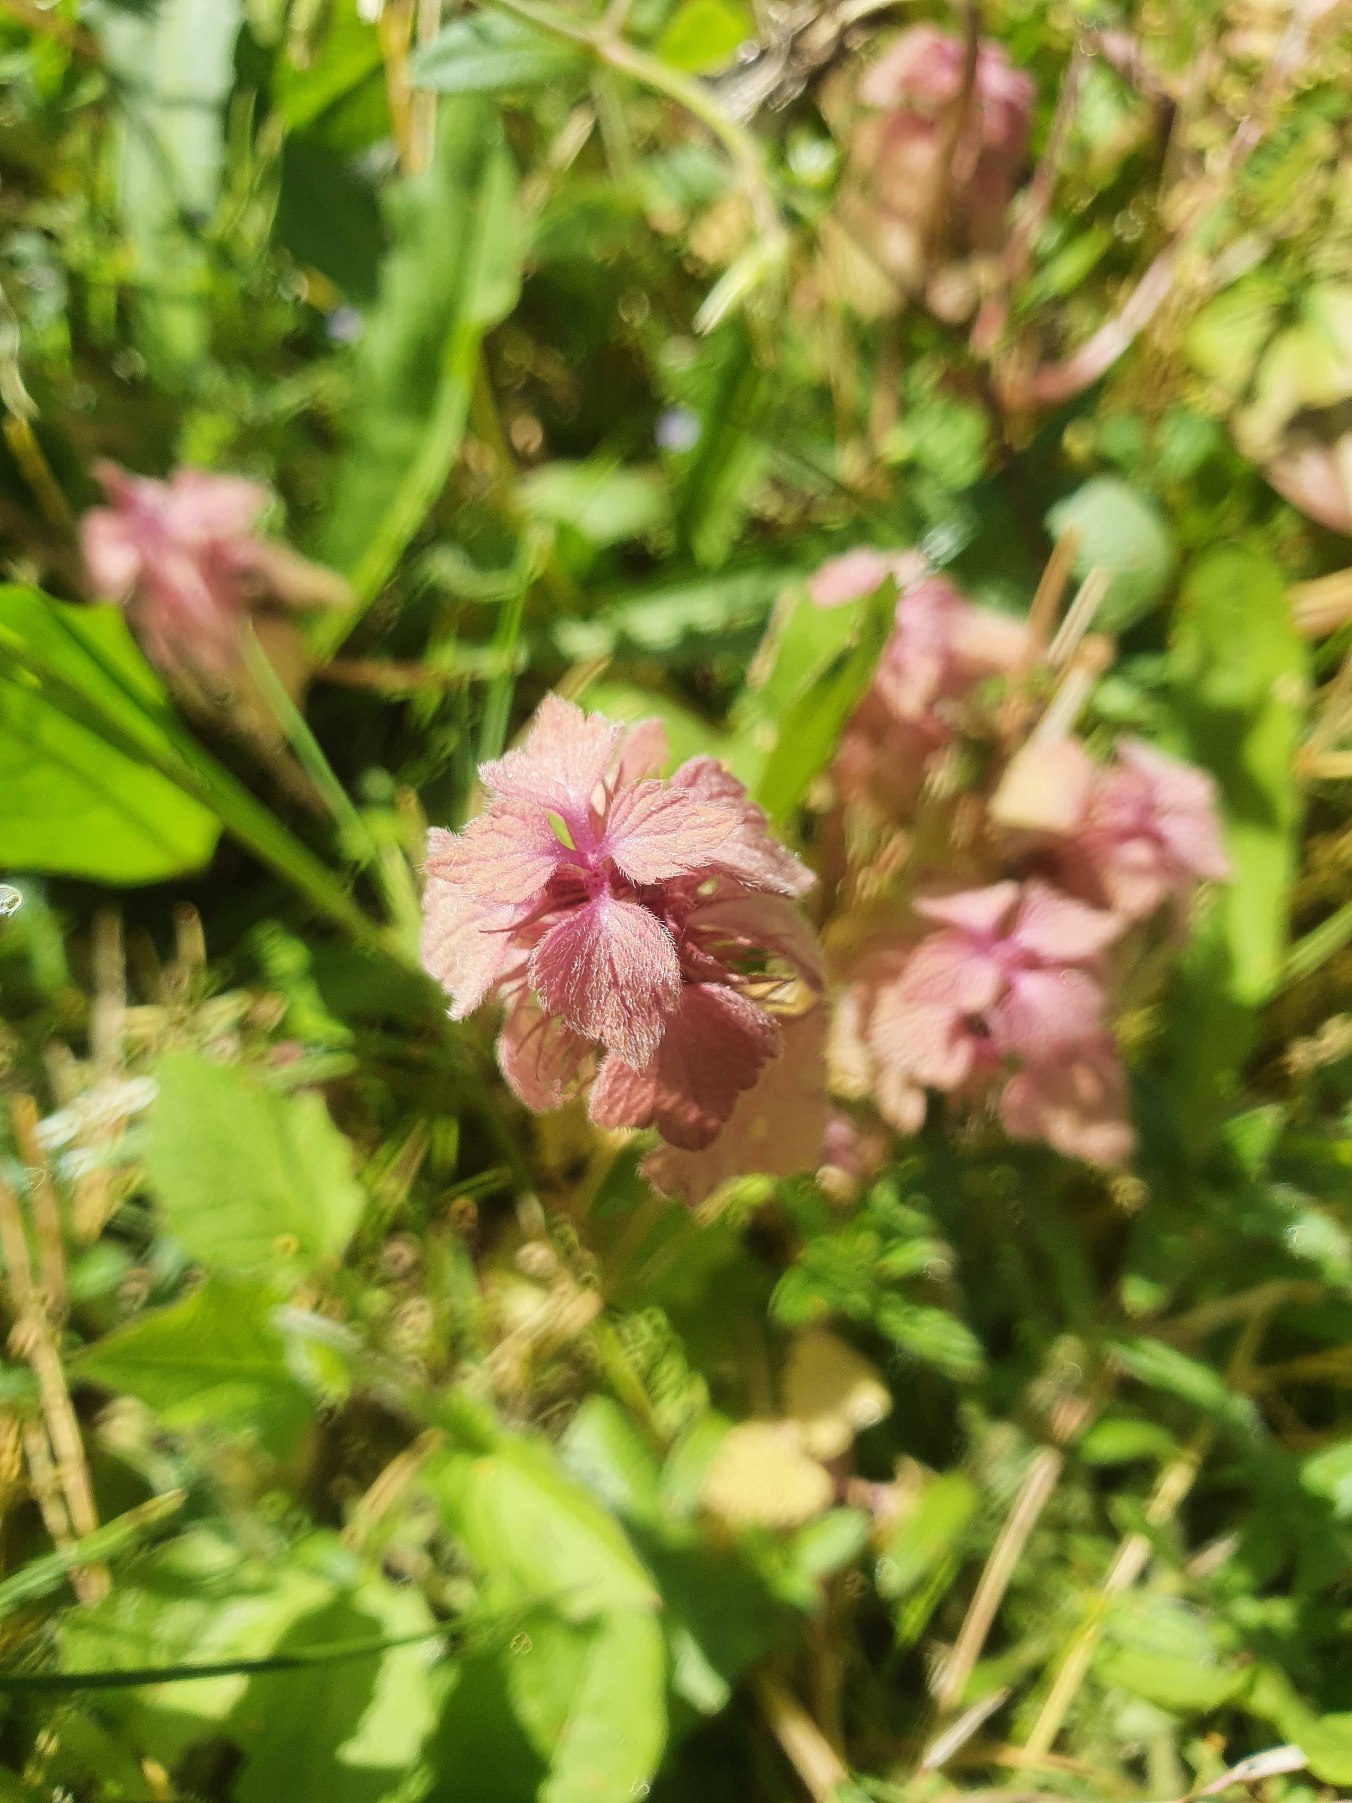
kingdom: Plantae
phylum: Tracheophyta
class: Magnoliopsida
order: Lamiales
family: Lamiaceae
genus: Lamium
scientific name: Lamium purpureum
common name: Rød tvetand
